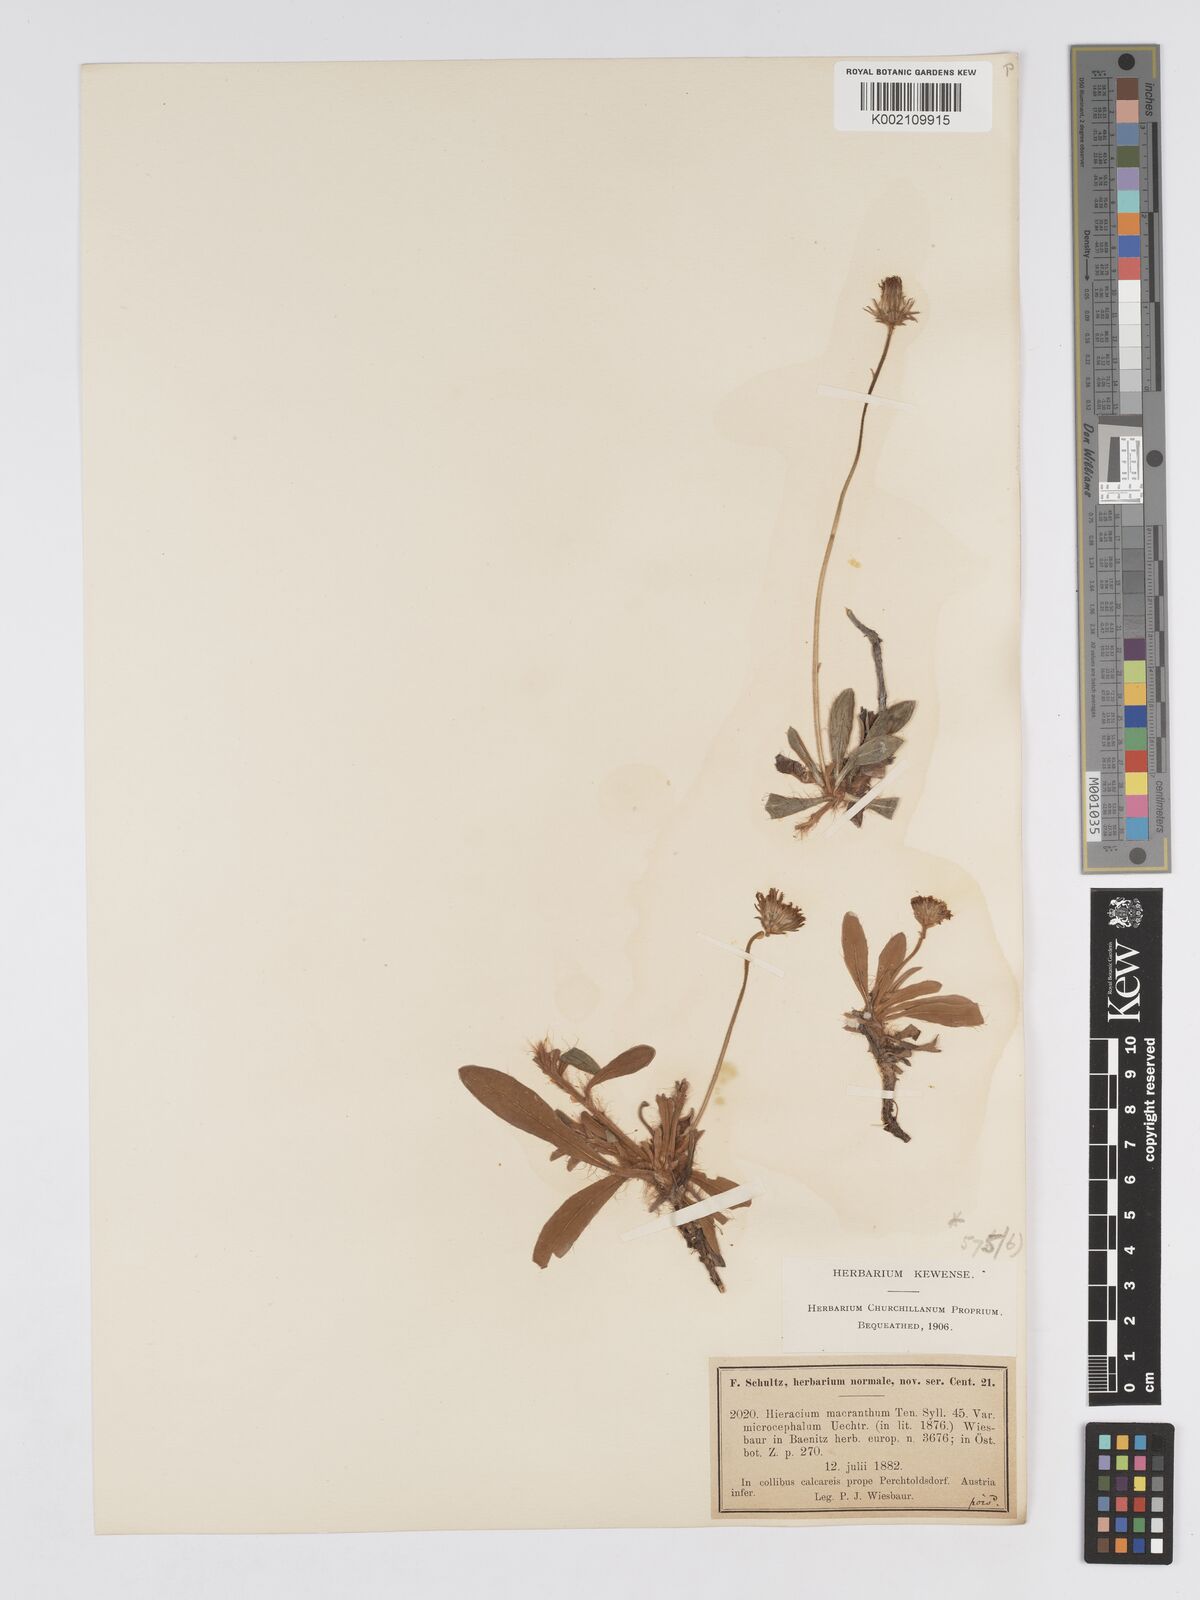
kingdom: Plantae
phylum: Tracheophyta
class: Magnoliopsida
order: Asterales
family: Asteraceae
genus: Pilosella
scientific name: Pilosella leucopsilon
